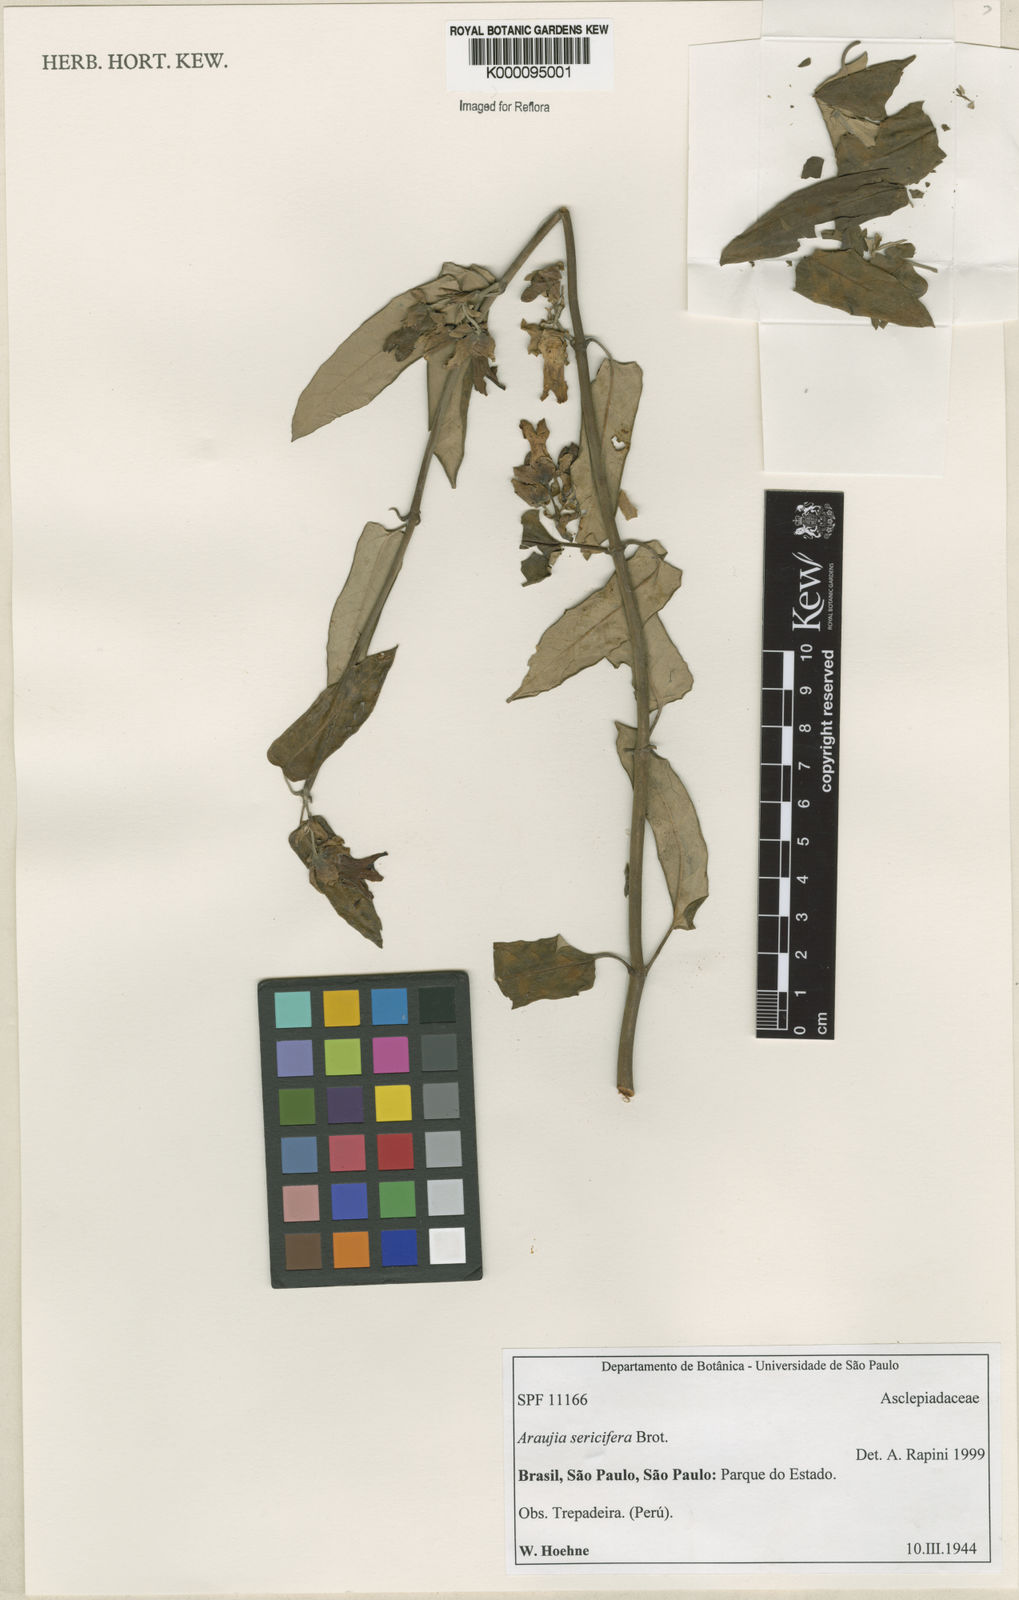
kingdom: Plantae
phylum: Tracheophyta
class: Magnoliopsida
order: Gentianales
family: Apocynaceae
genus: Araujia
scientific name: Araujia sericifera
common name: White bladderflower
